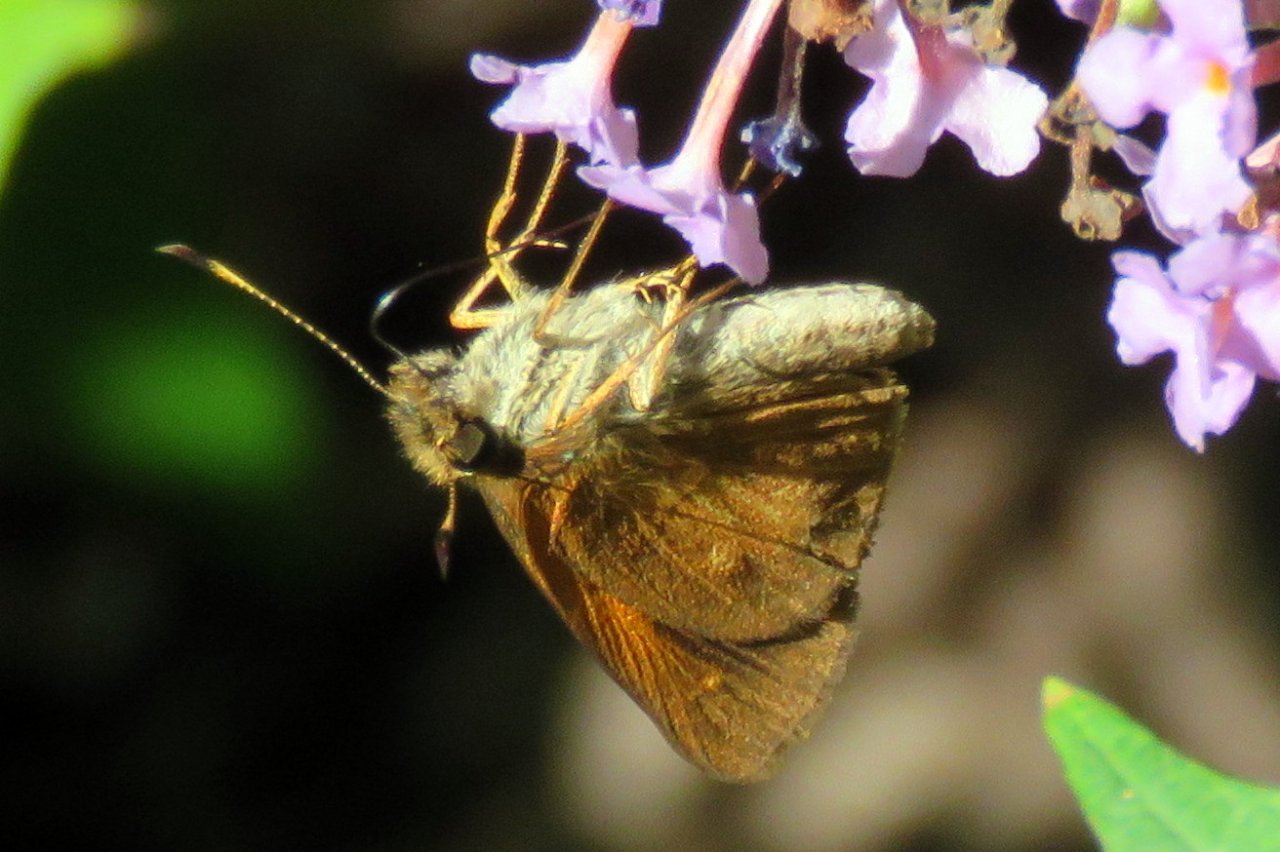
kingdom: Animalia
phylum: Arthropoda
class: Insecta
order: Lepidoptera
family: Hesperiidae
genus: Poanes
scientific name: Poanes viator
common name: Broad-winged Skipper
